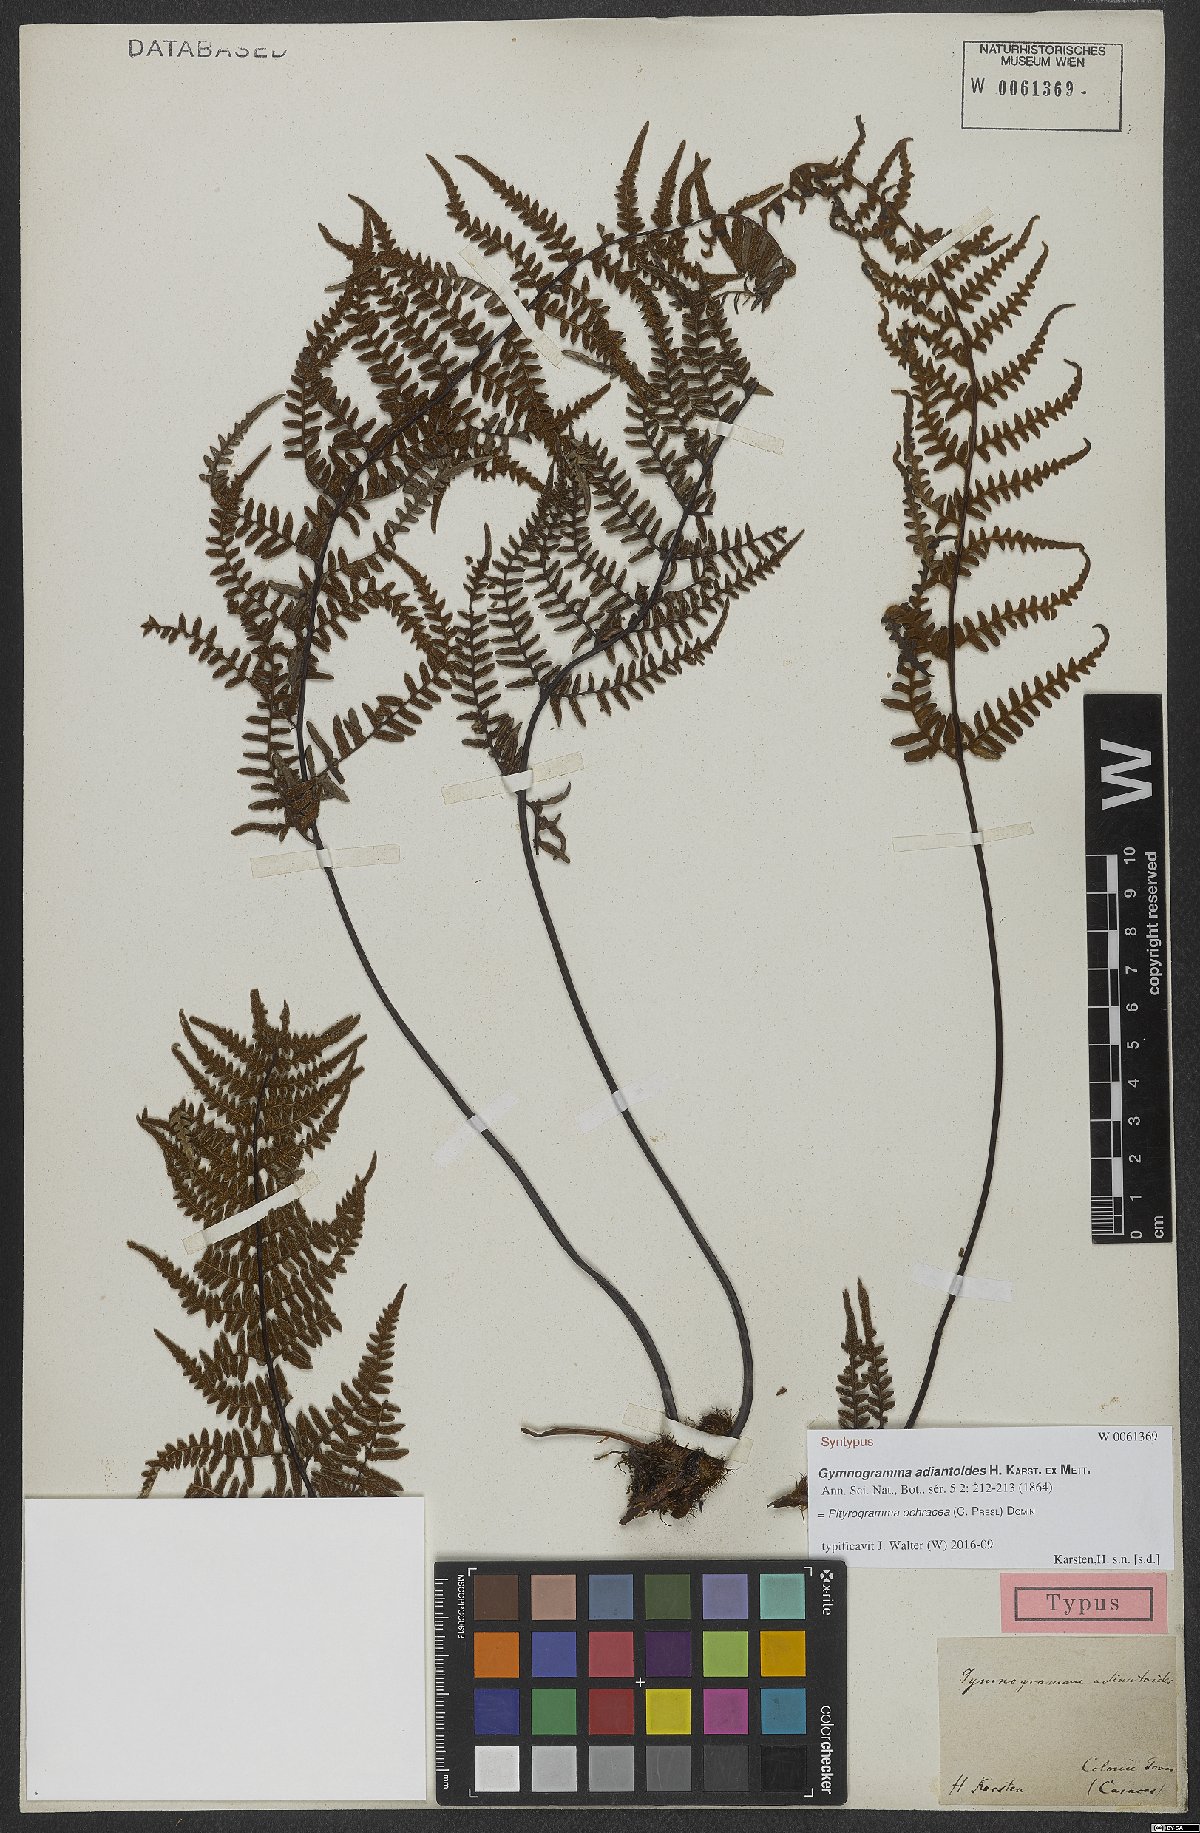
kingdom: Plantae
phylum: Tracheophyta
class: Polypodiopsida
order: Polypodiales
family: Pteridaceae
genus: Pityrogramma
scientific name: Pityrogramma ochracea
